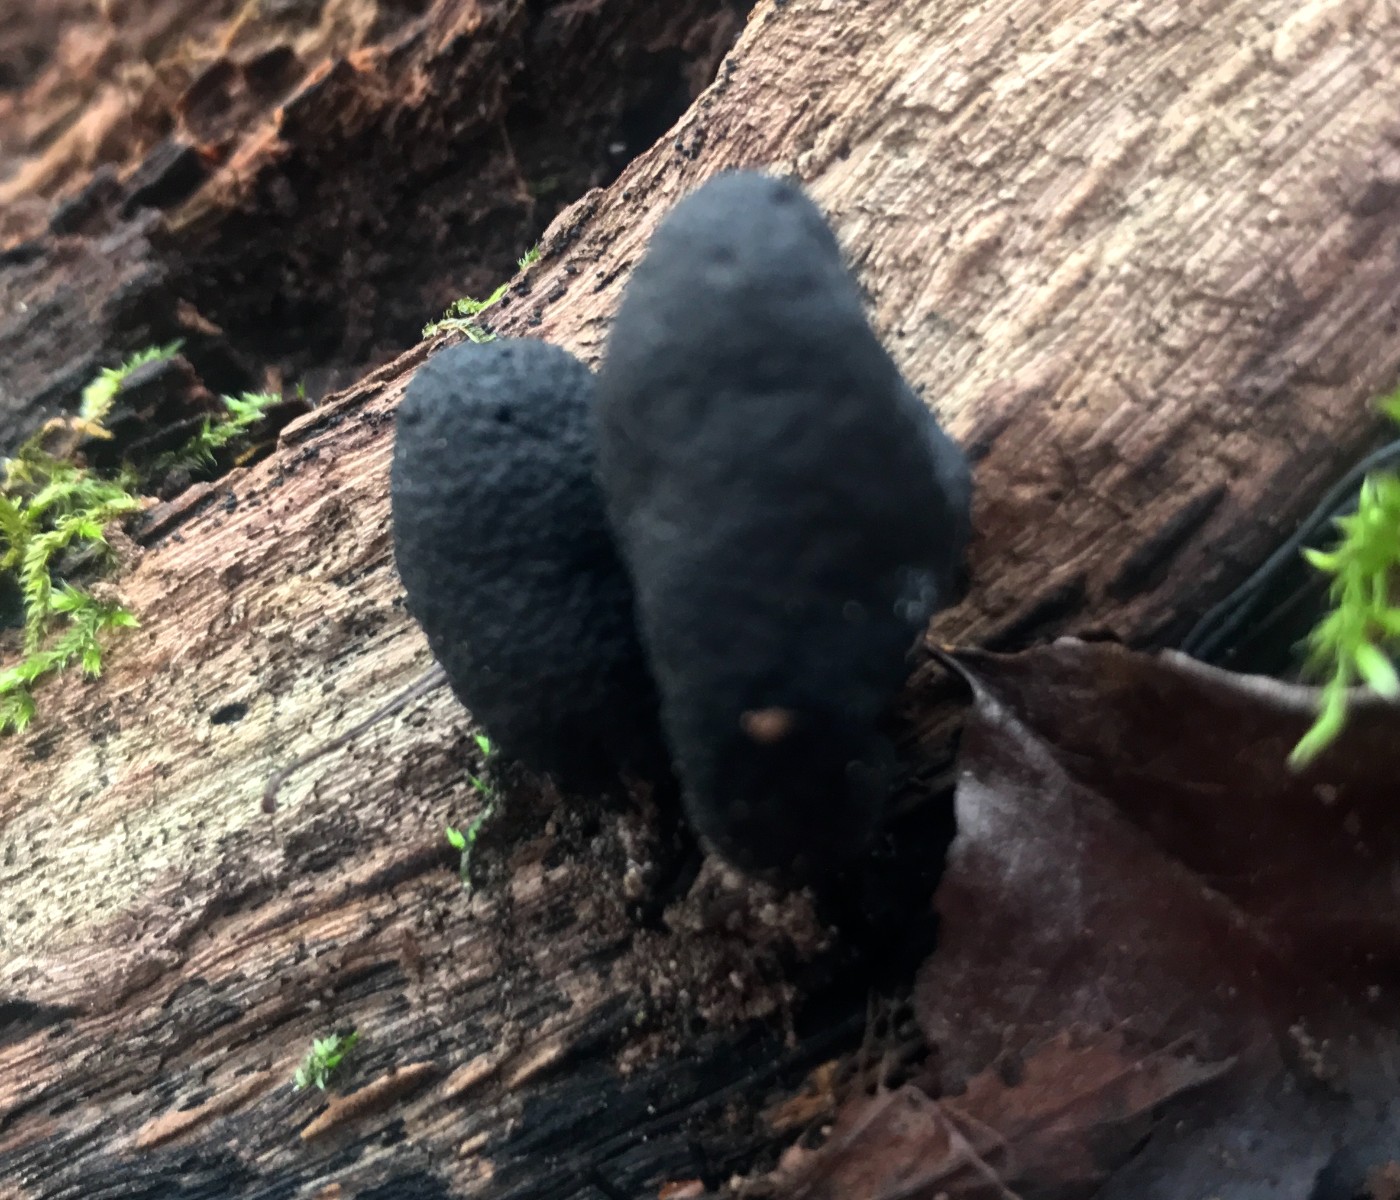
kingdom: Fungi
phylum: Ascomycota
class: Sordariomycetes
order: Xylariales
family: Xylariaceae
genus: Xylaria
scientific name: Xylaria polymorpha
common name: kølle-stødsvamp
